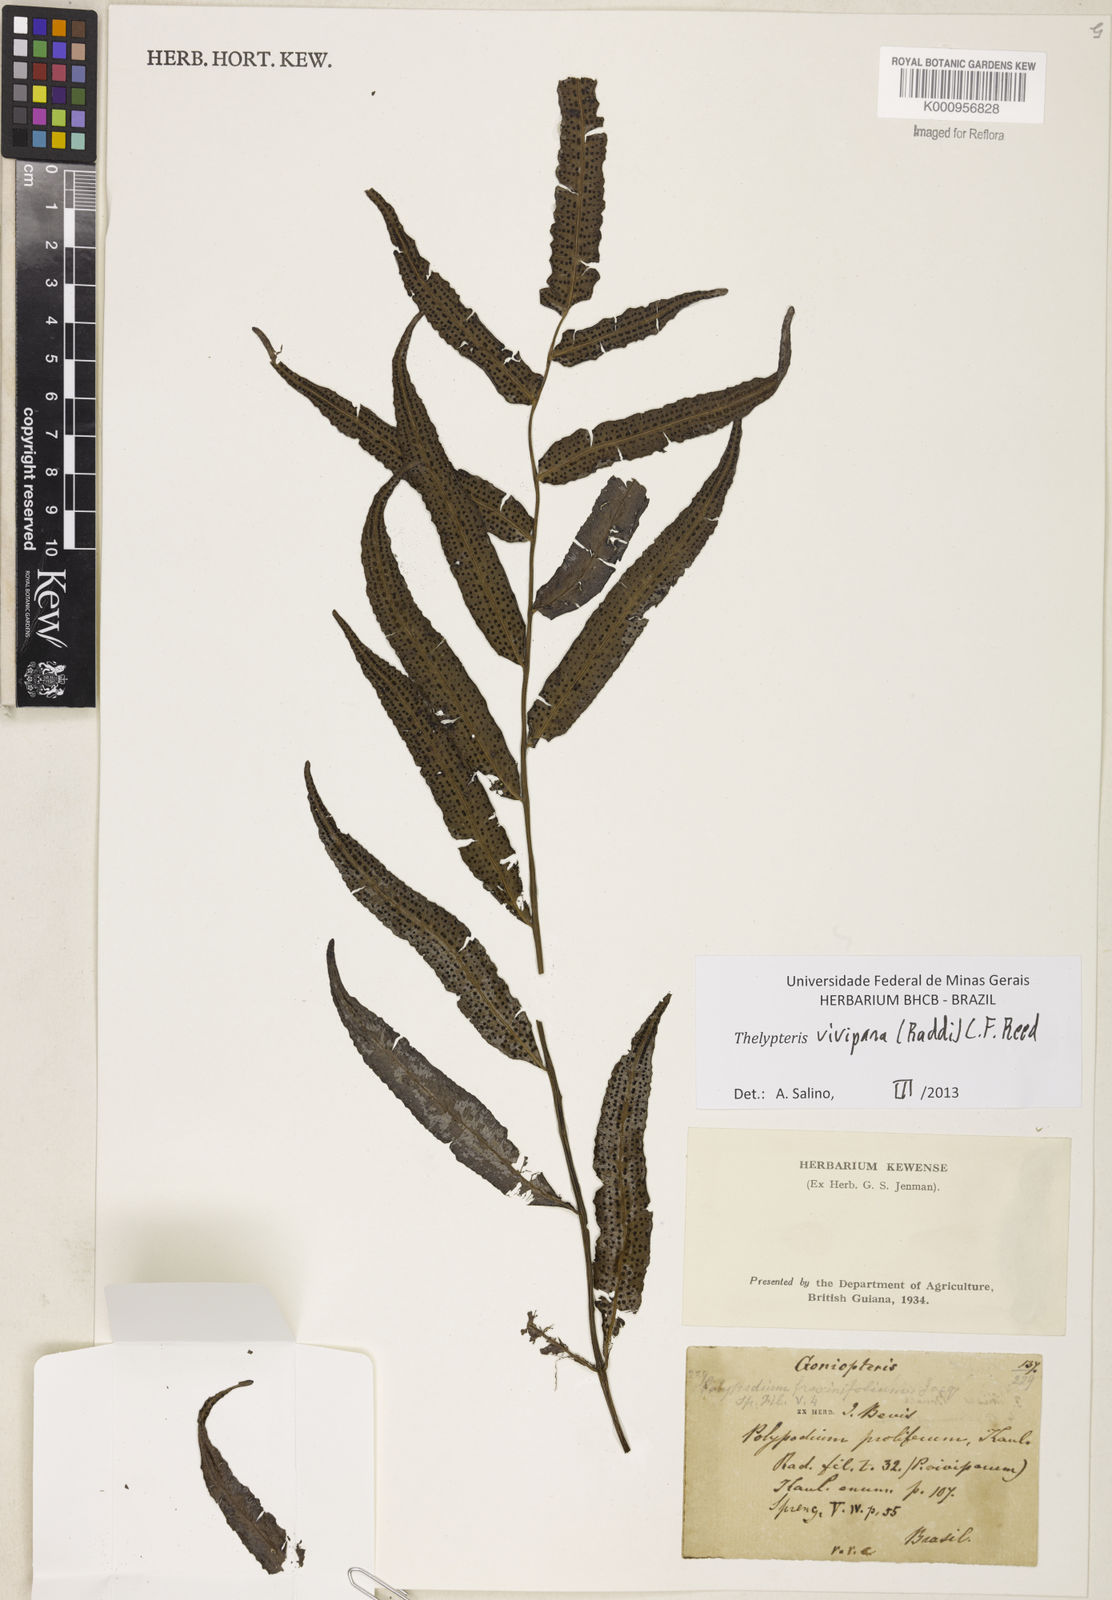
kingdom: Plantae
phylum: Tracheophyta
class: Polypodiopsida
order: Polypodiales
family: Thelypteridaceae
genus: Goniopteris
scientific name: Goniopteris vivipara
